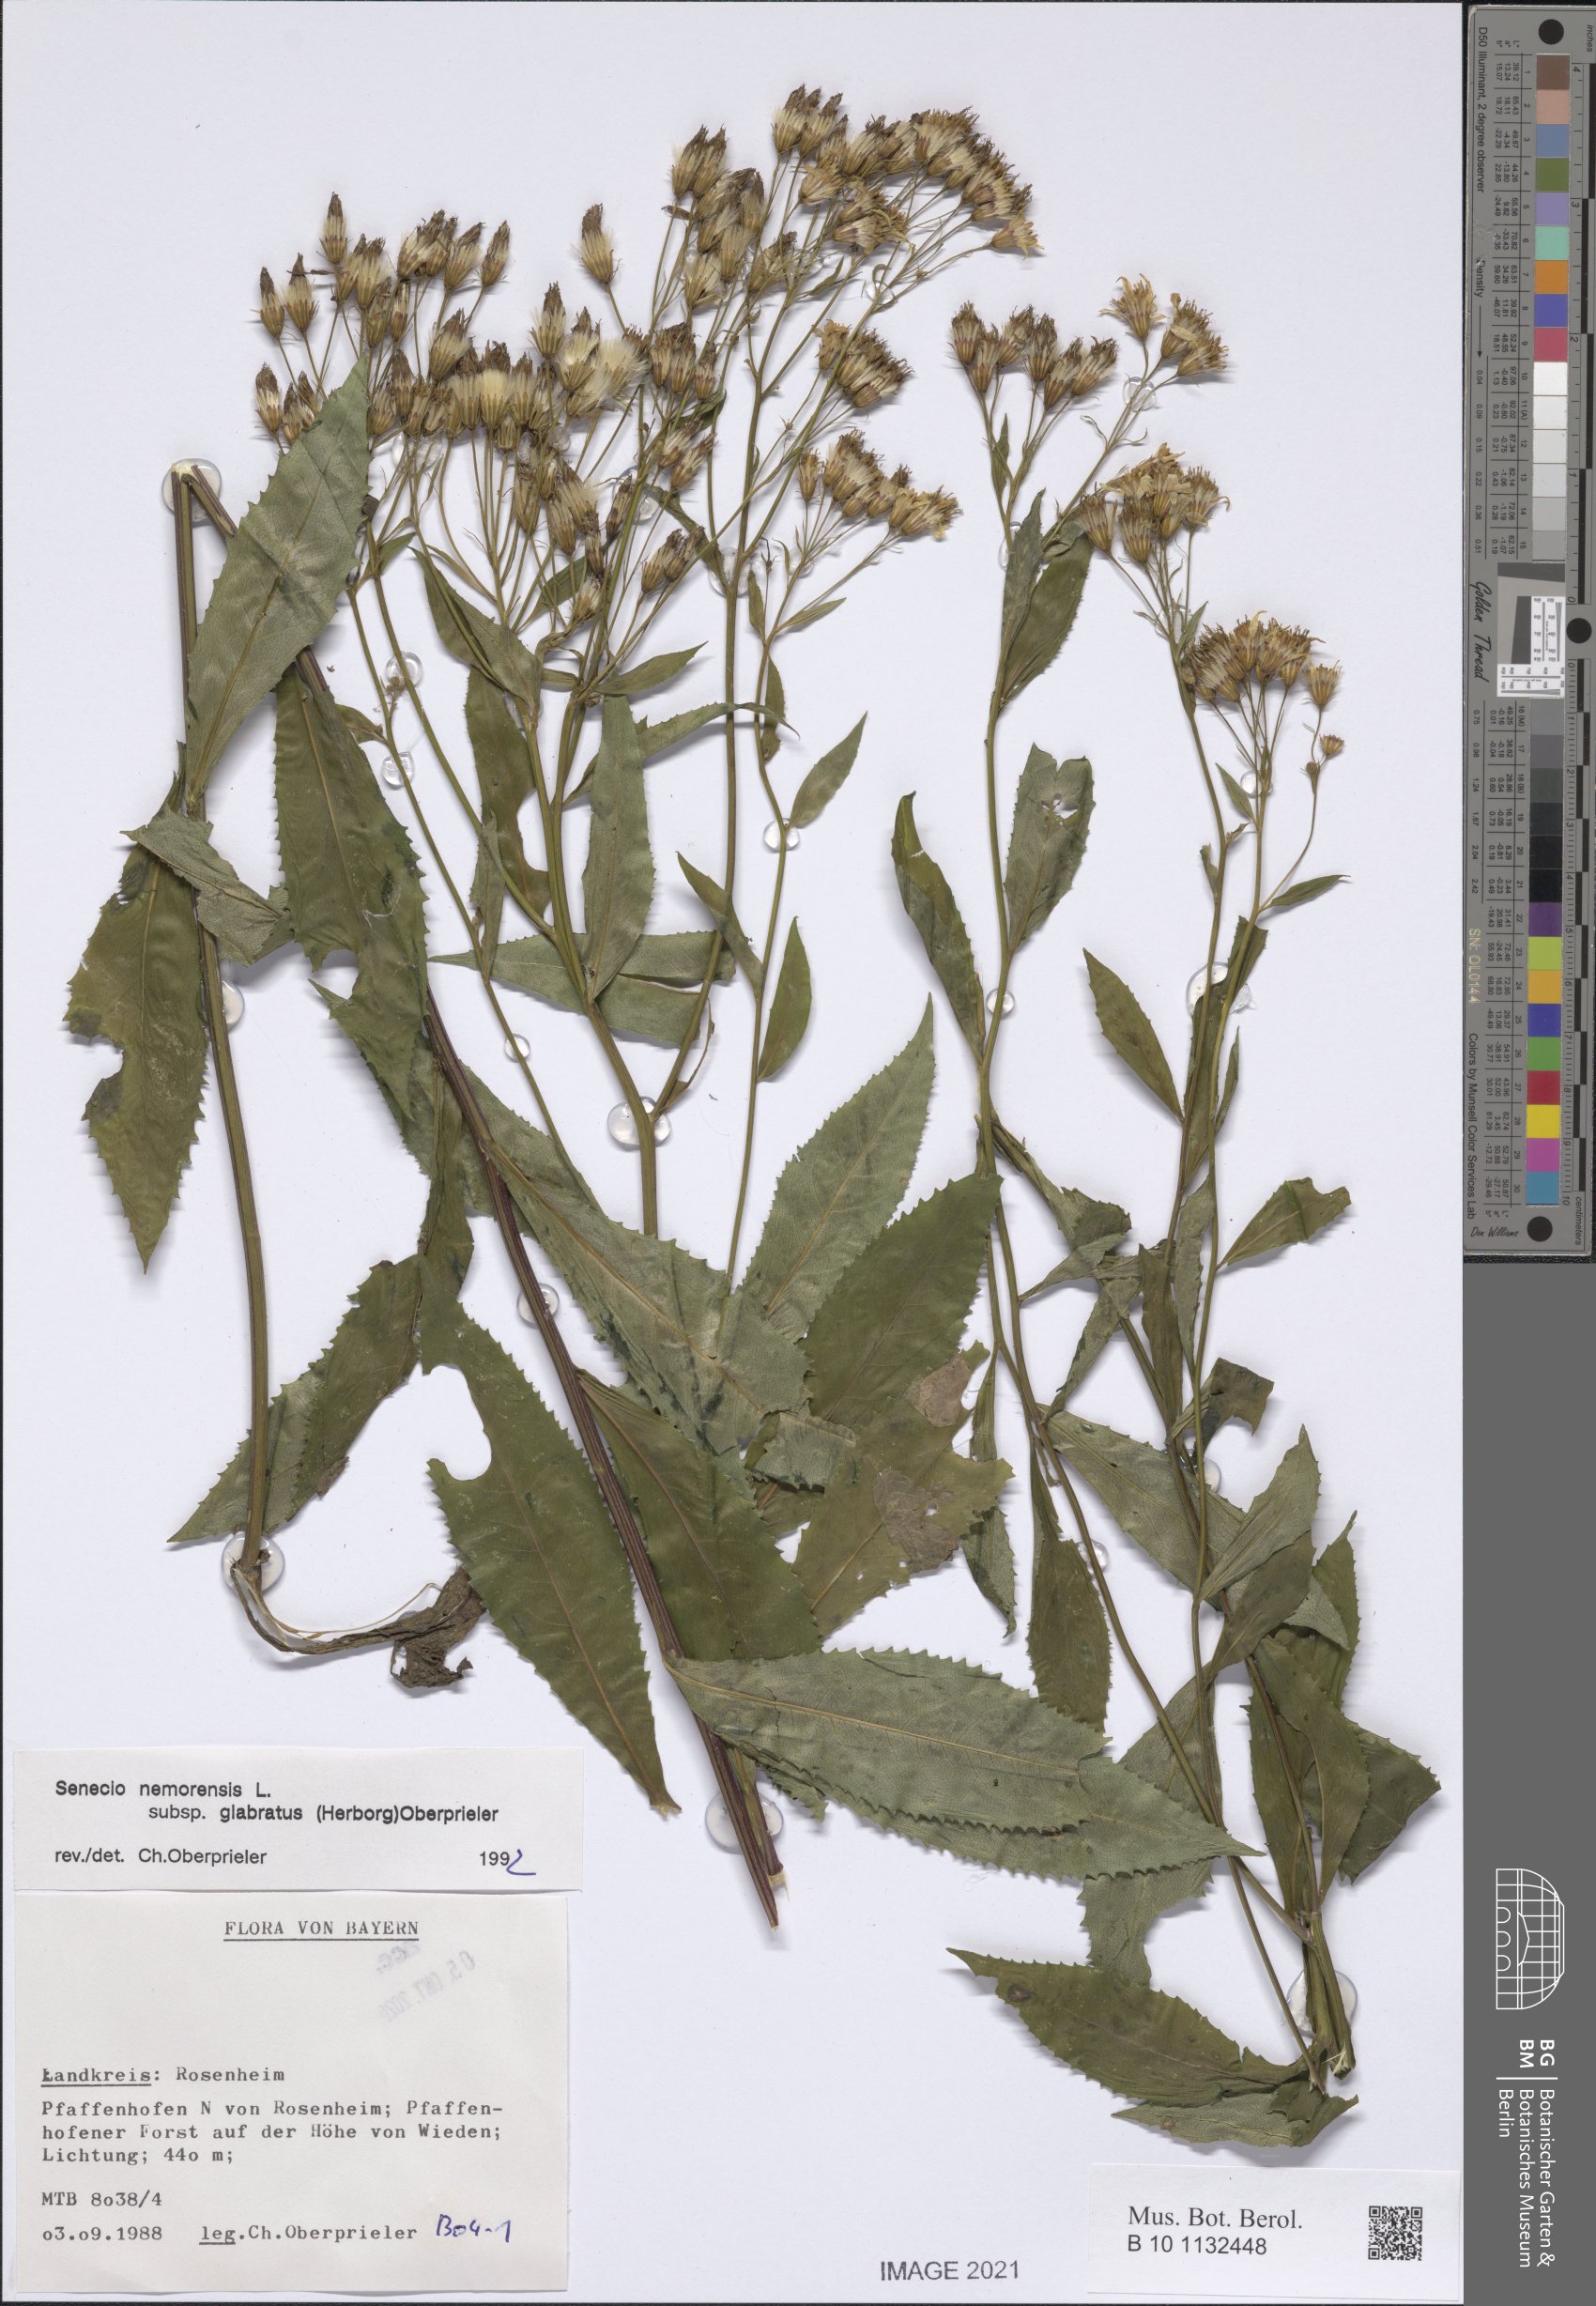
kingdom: Plantae
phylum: Tracheophyta
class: Magnoliopsida
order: Asterales
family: Asteraceae
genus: Senecio
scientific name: Senecio germanicus
